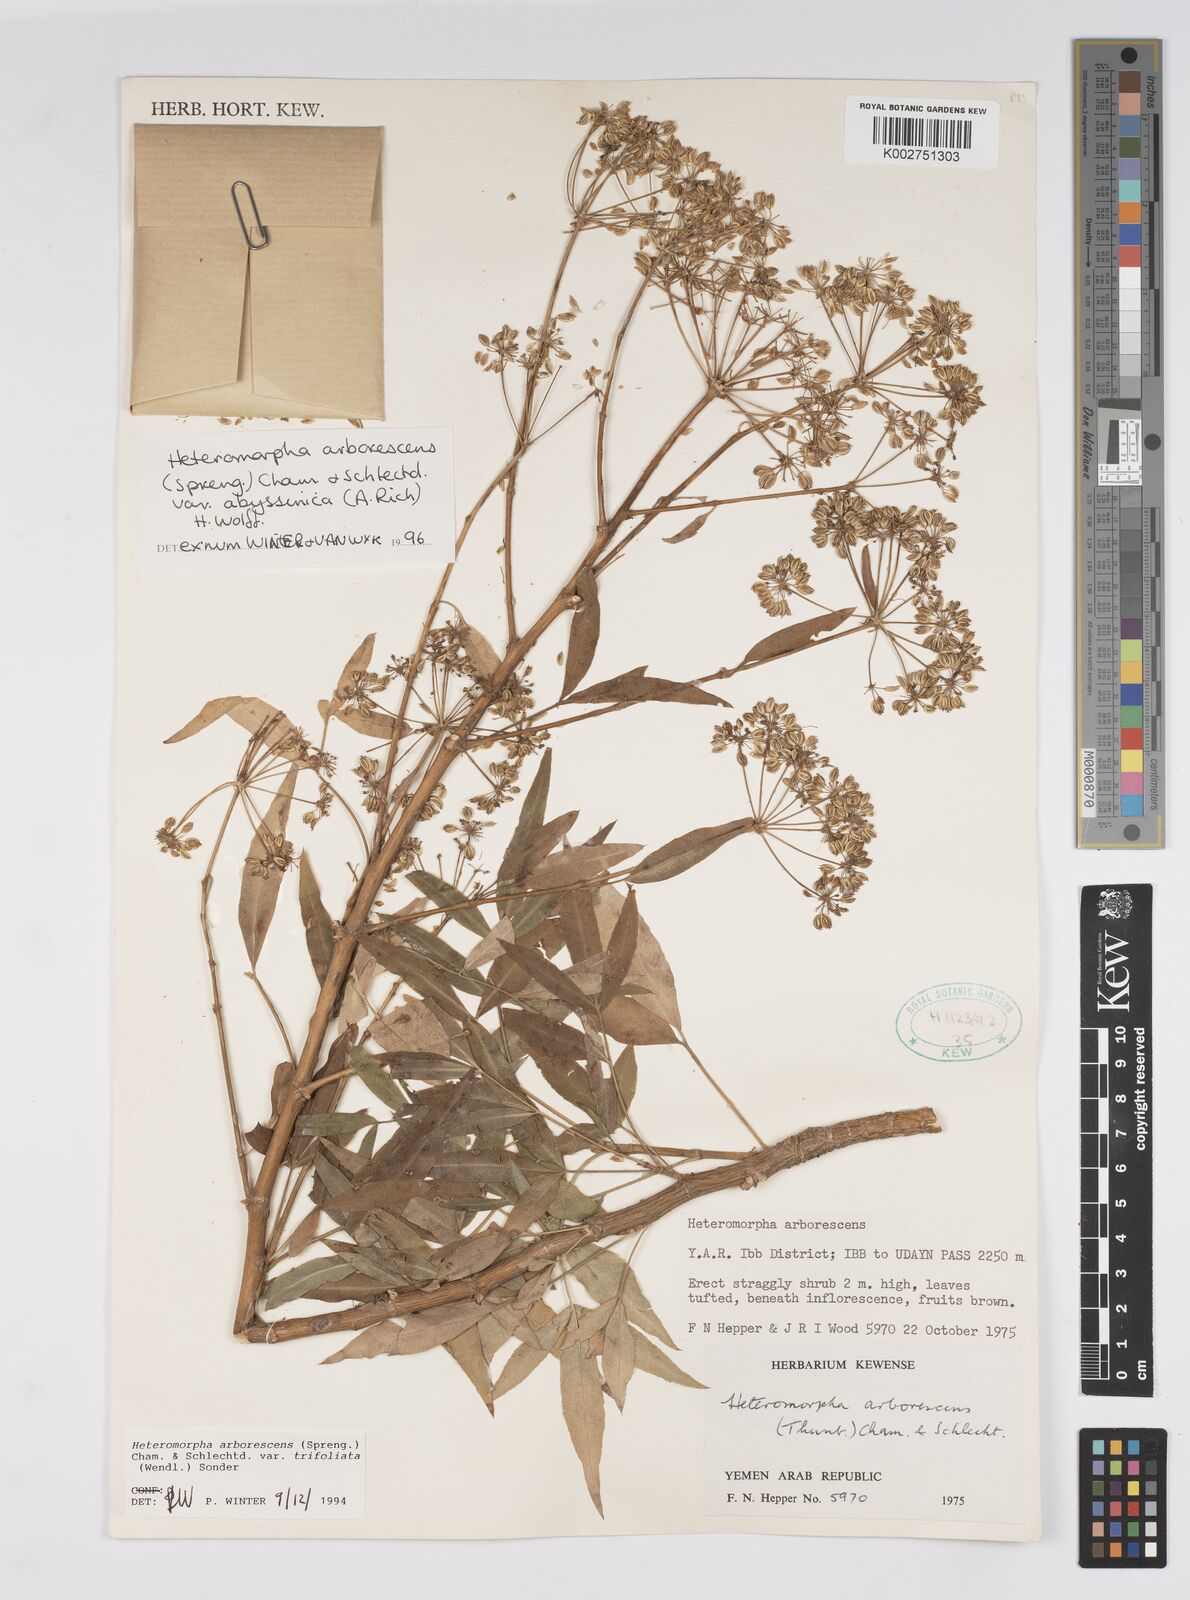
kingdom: Plantae
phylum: Tracheophyta
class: Magnoliopsida
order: Apiales
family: Apiaceae
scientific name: Apiaceae
